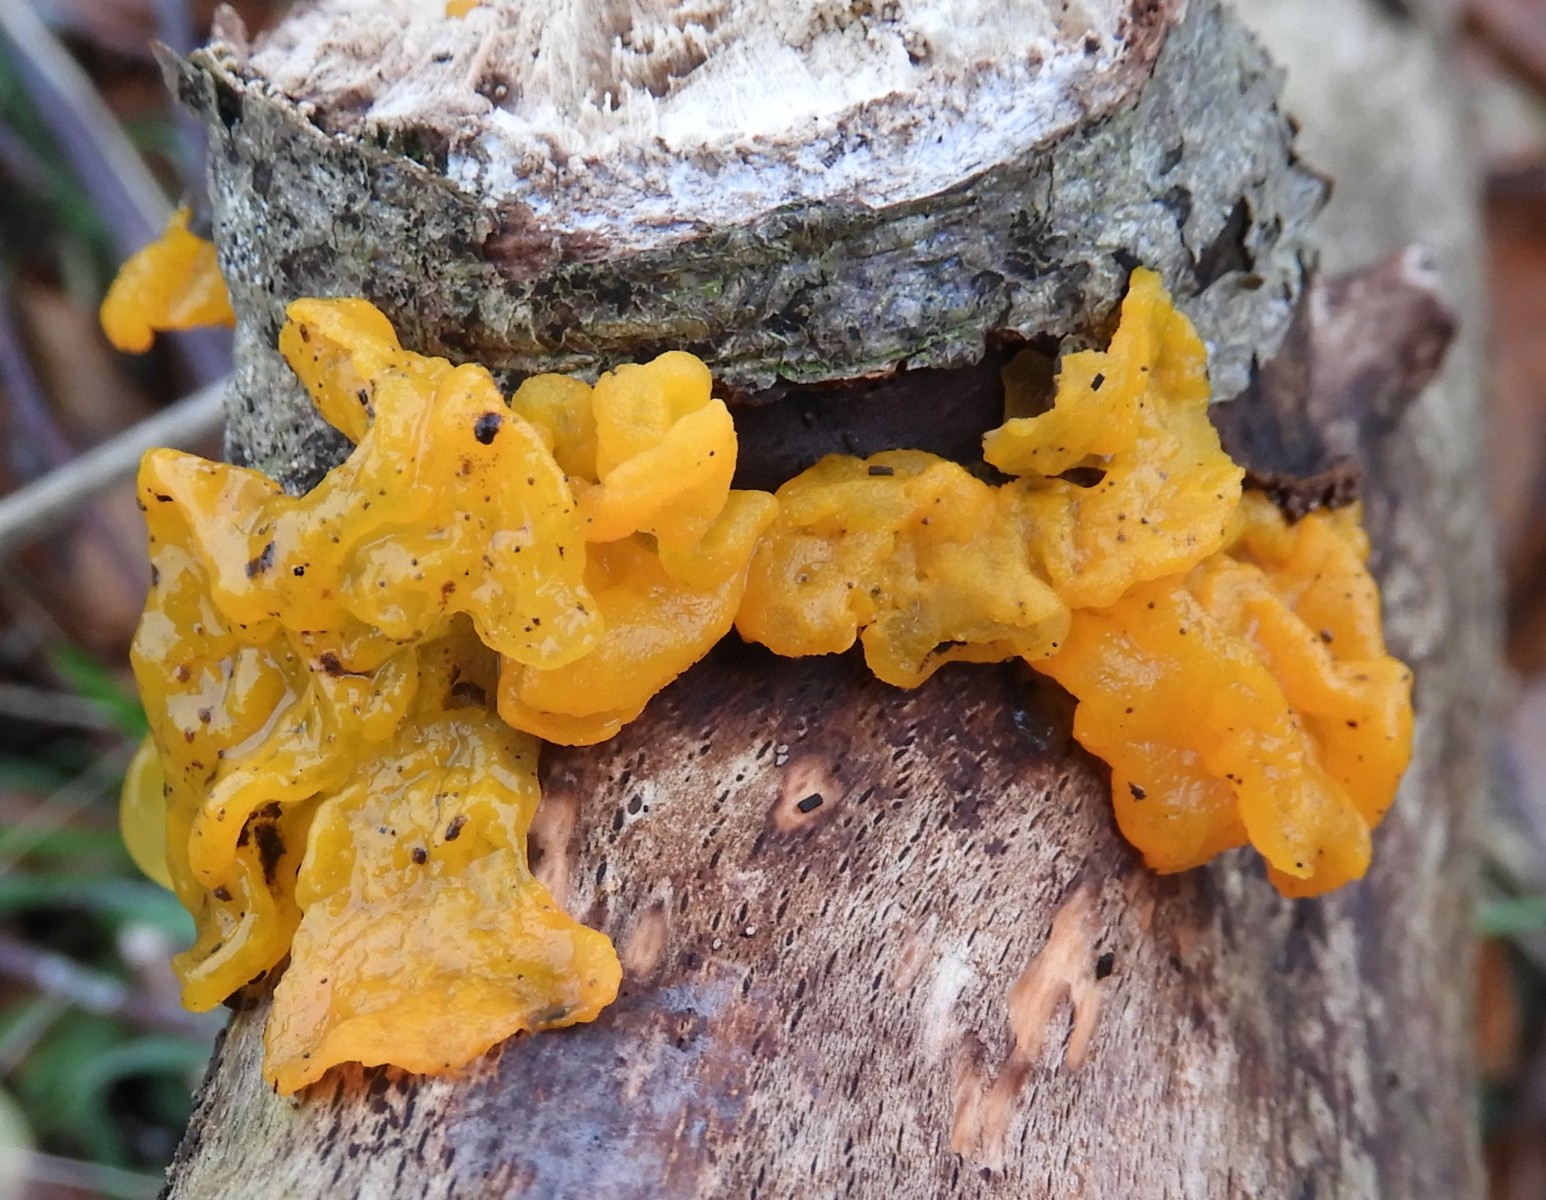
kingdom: Fungi
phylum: Basidiomycota
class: Tremellomycetes
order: Tremellales
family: Tremellaceae
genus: Tremella
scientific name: Tremella mesenterica
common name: gul bævresvamp
